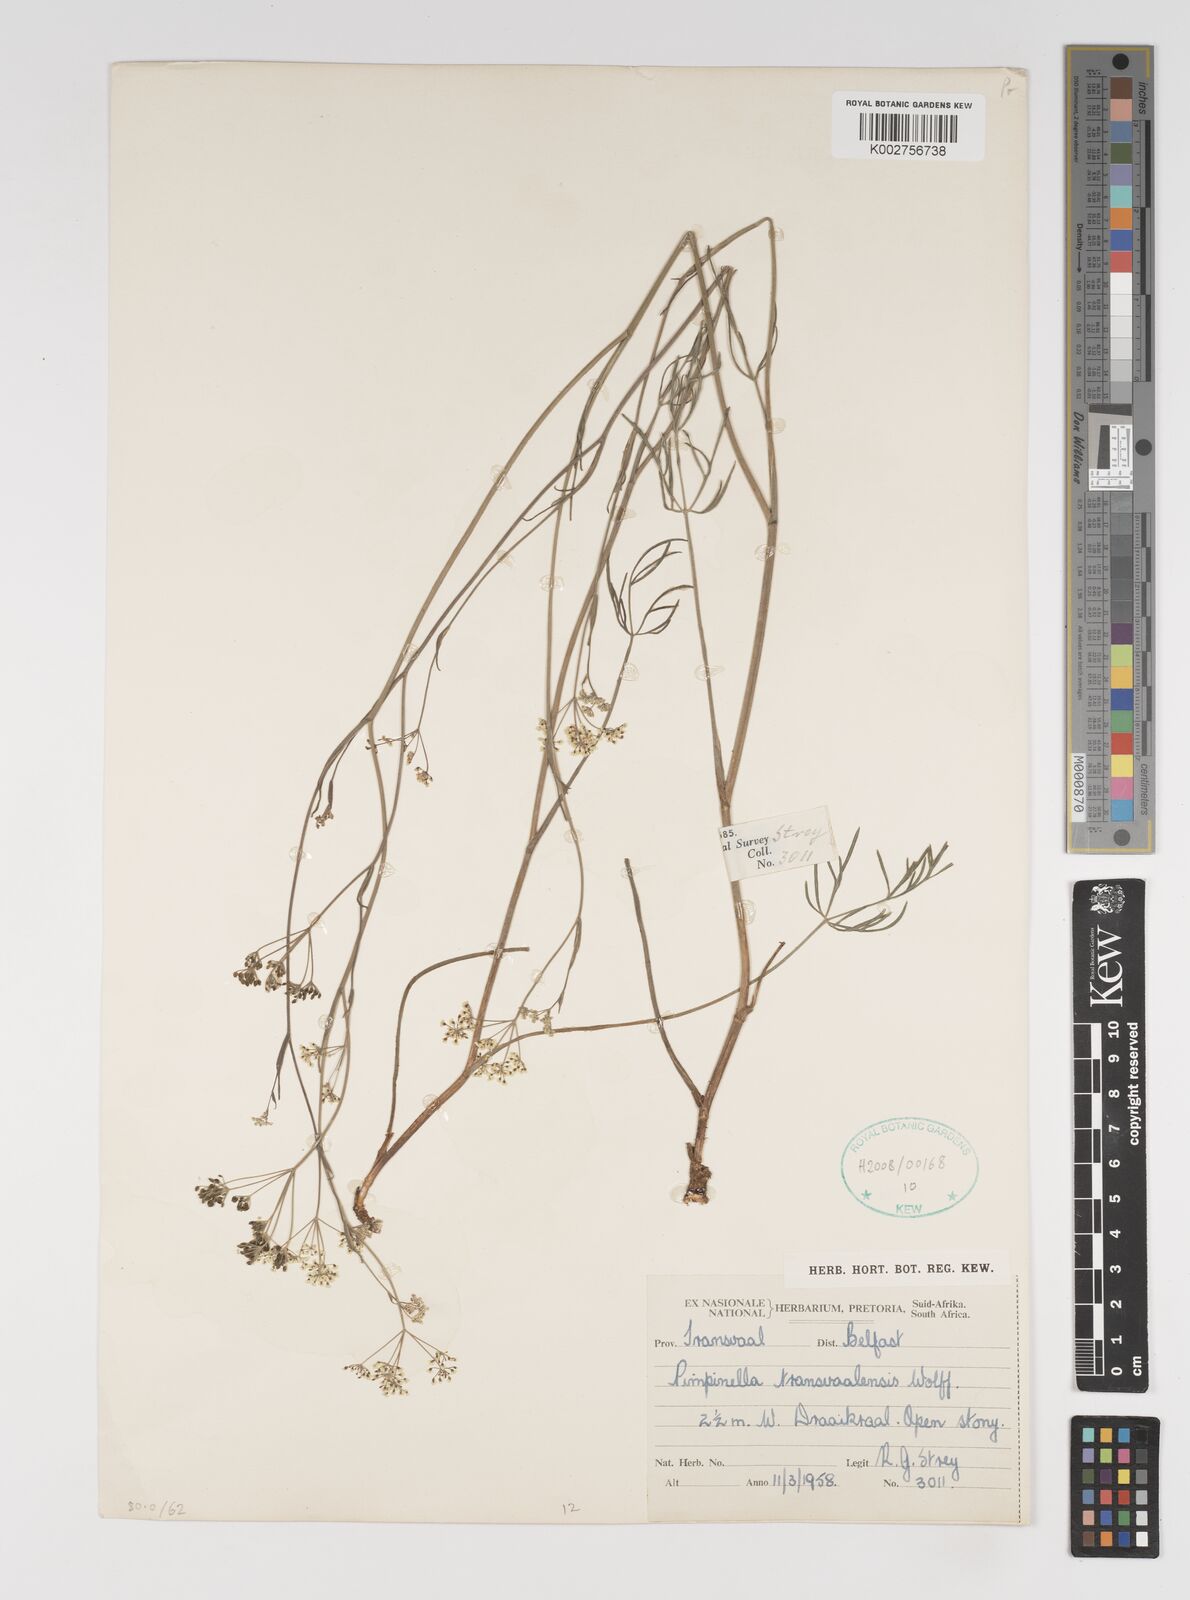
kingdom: Plantae
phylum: Tracheophyta
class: Magnoliopsida
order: Apiales
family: Apiaceae
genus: Pimpinella
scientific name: Pimpinella transvaalensis
